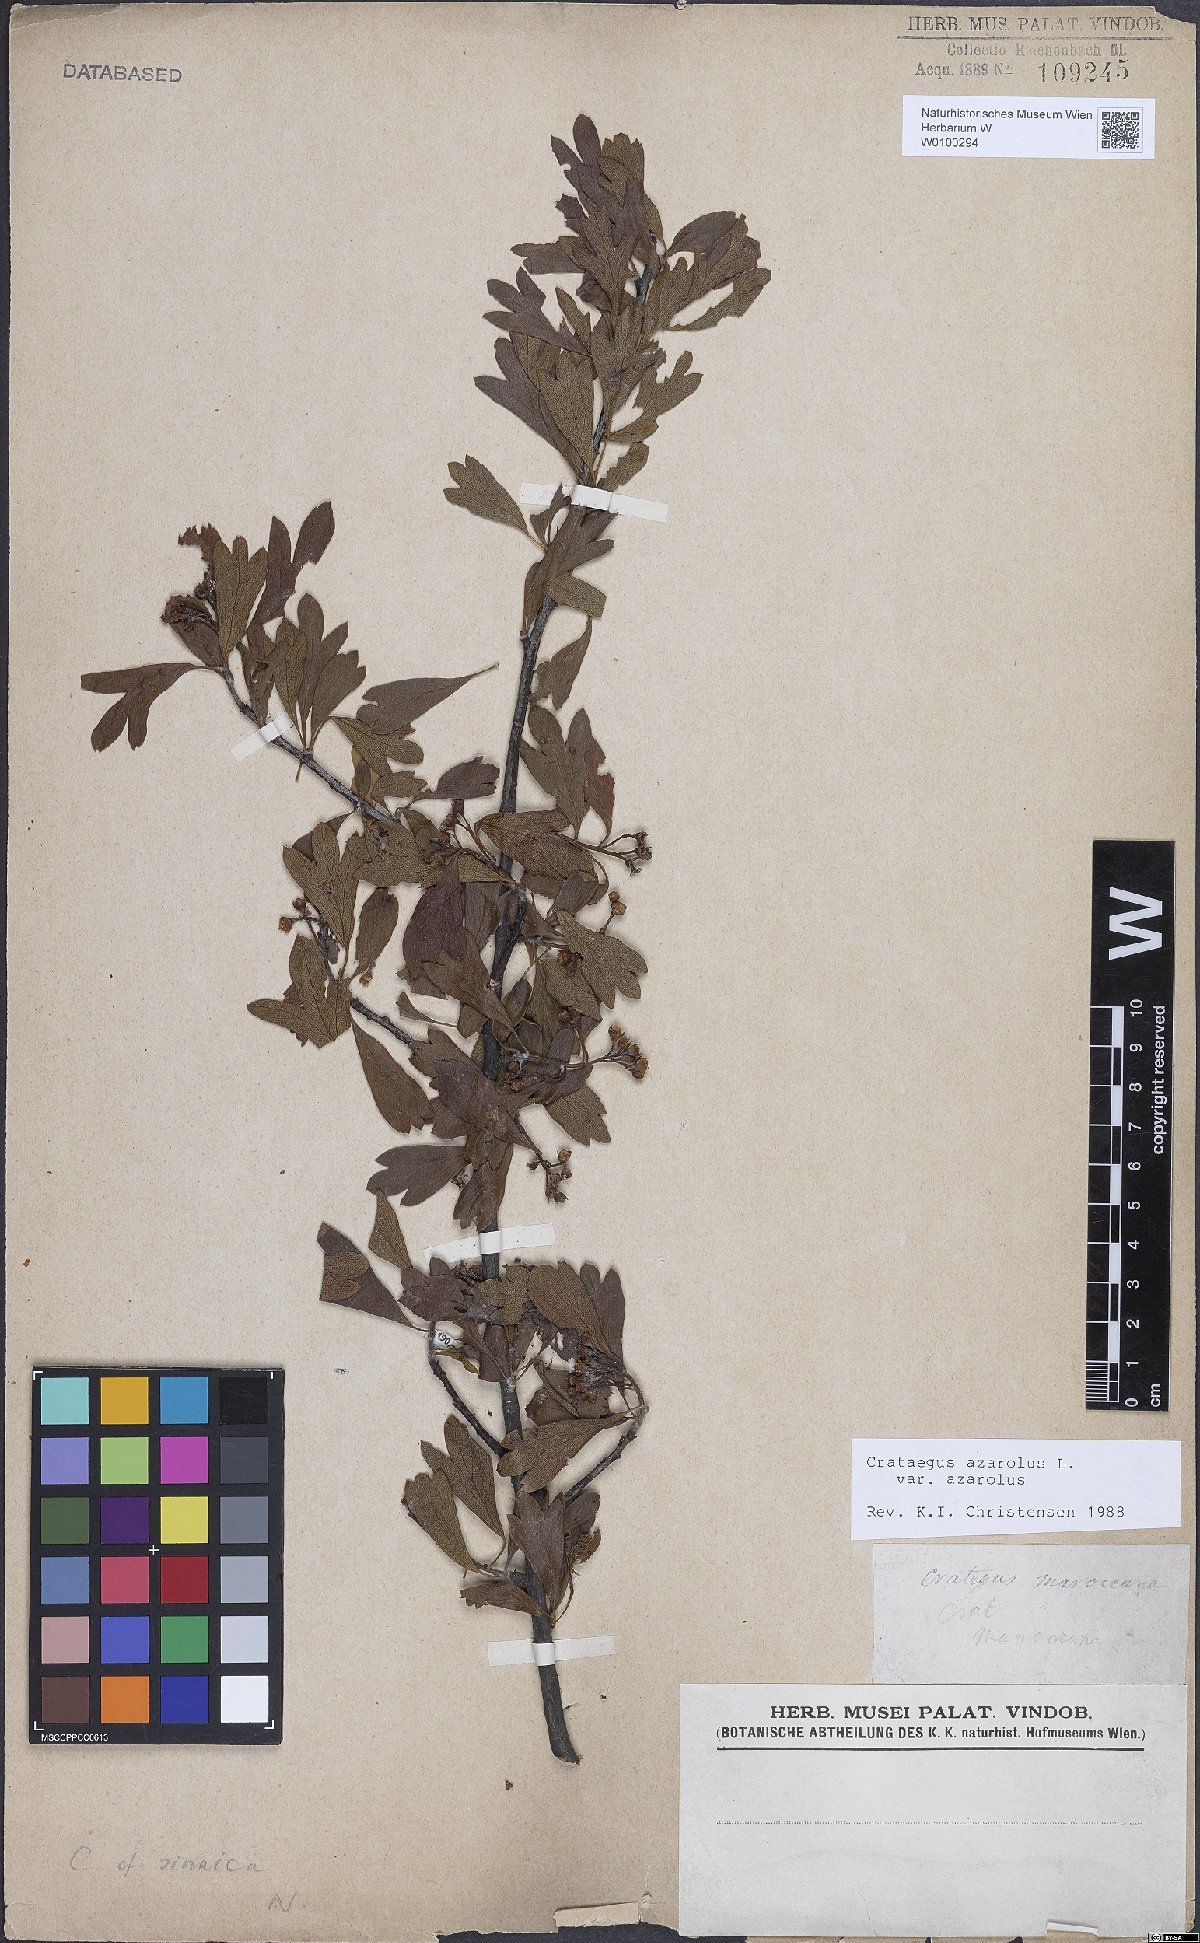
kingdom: Plantae
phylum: Tracheophyta
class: Magnoliopsida
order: Rosales
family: Rosaceae
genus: Crataegus
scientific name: Crataegus azarolus
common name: Azarole
